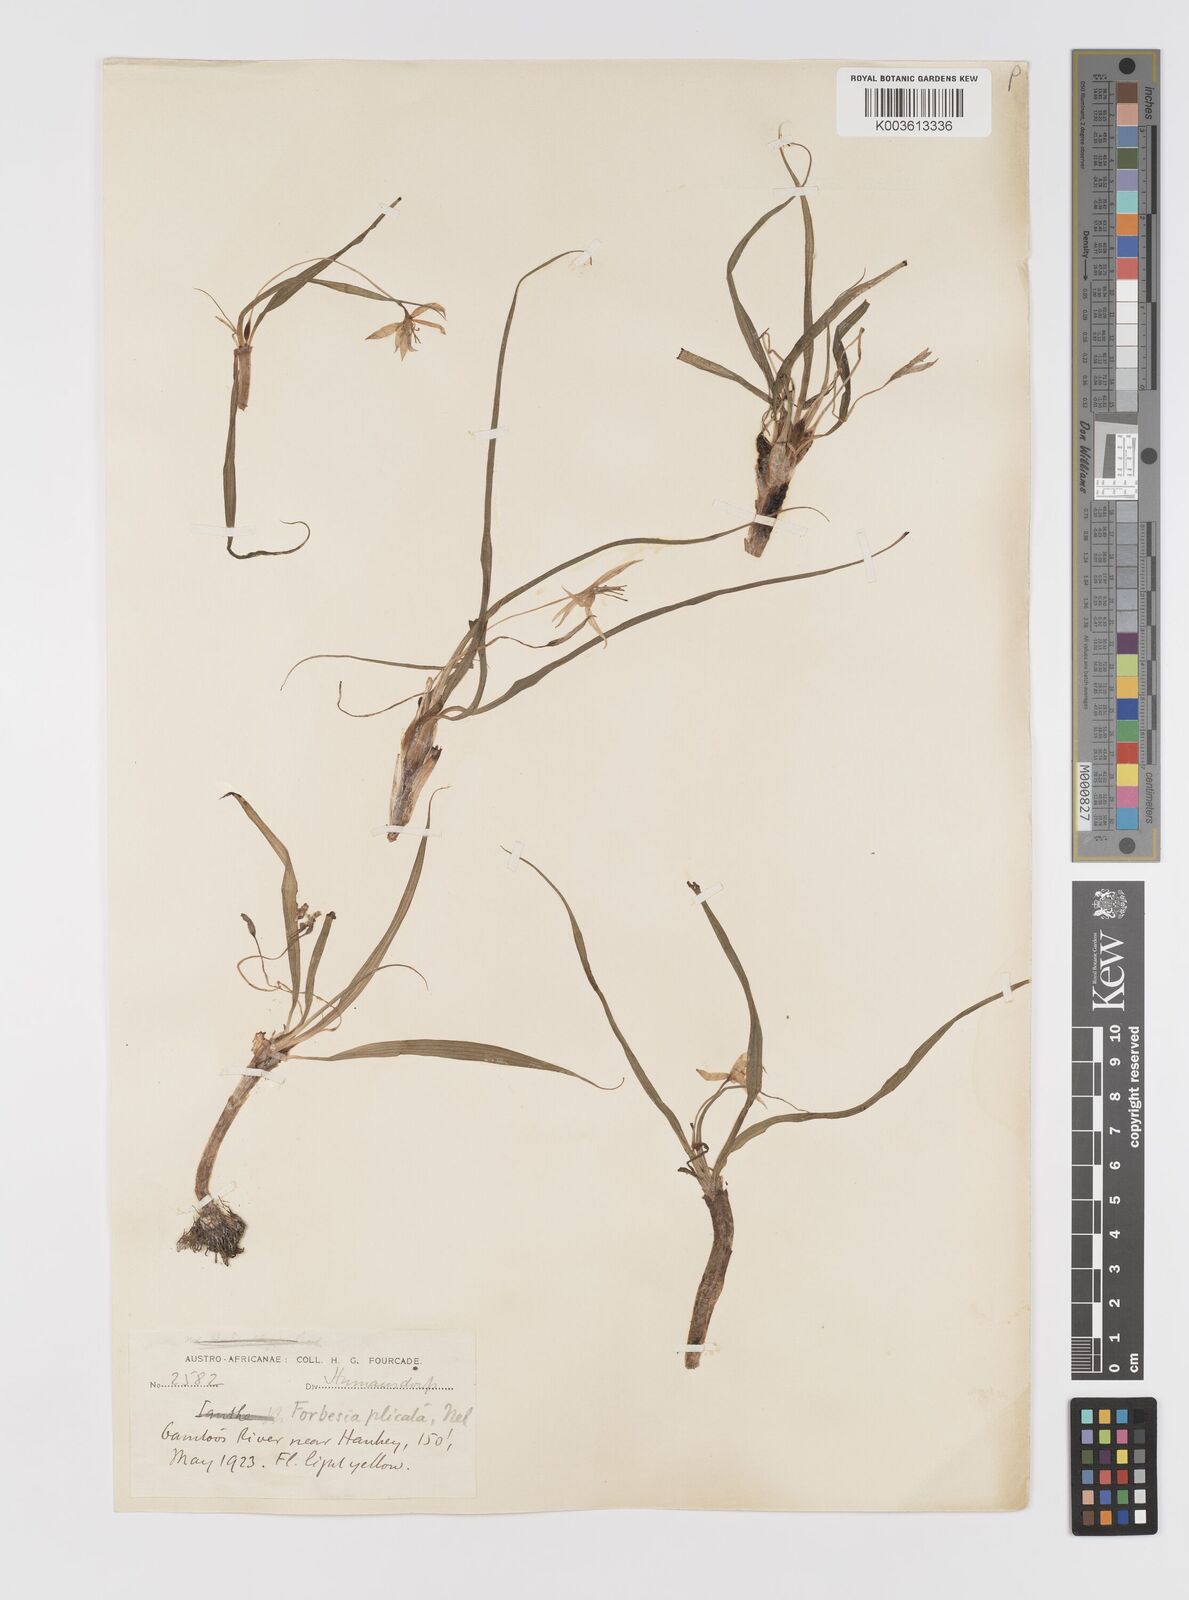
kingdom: Plantae
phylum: Tracheophyta
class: Liliopsida
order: Asparagales
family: Hypoxidaceae
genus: Empodium
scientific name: Empodium elongatum
